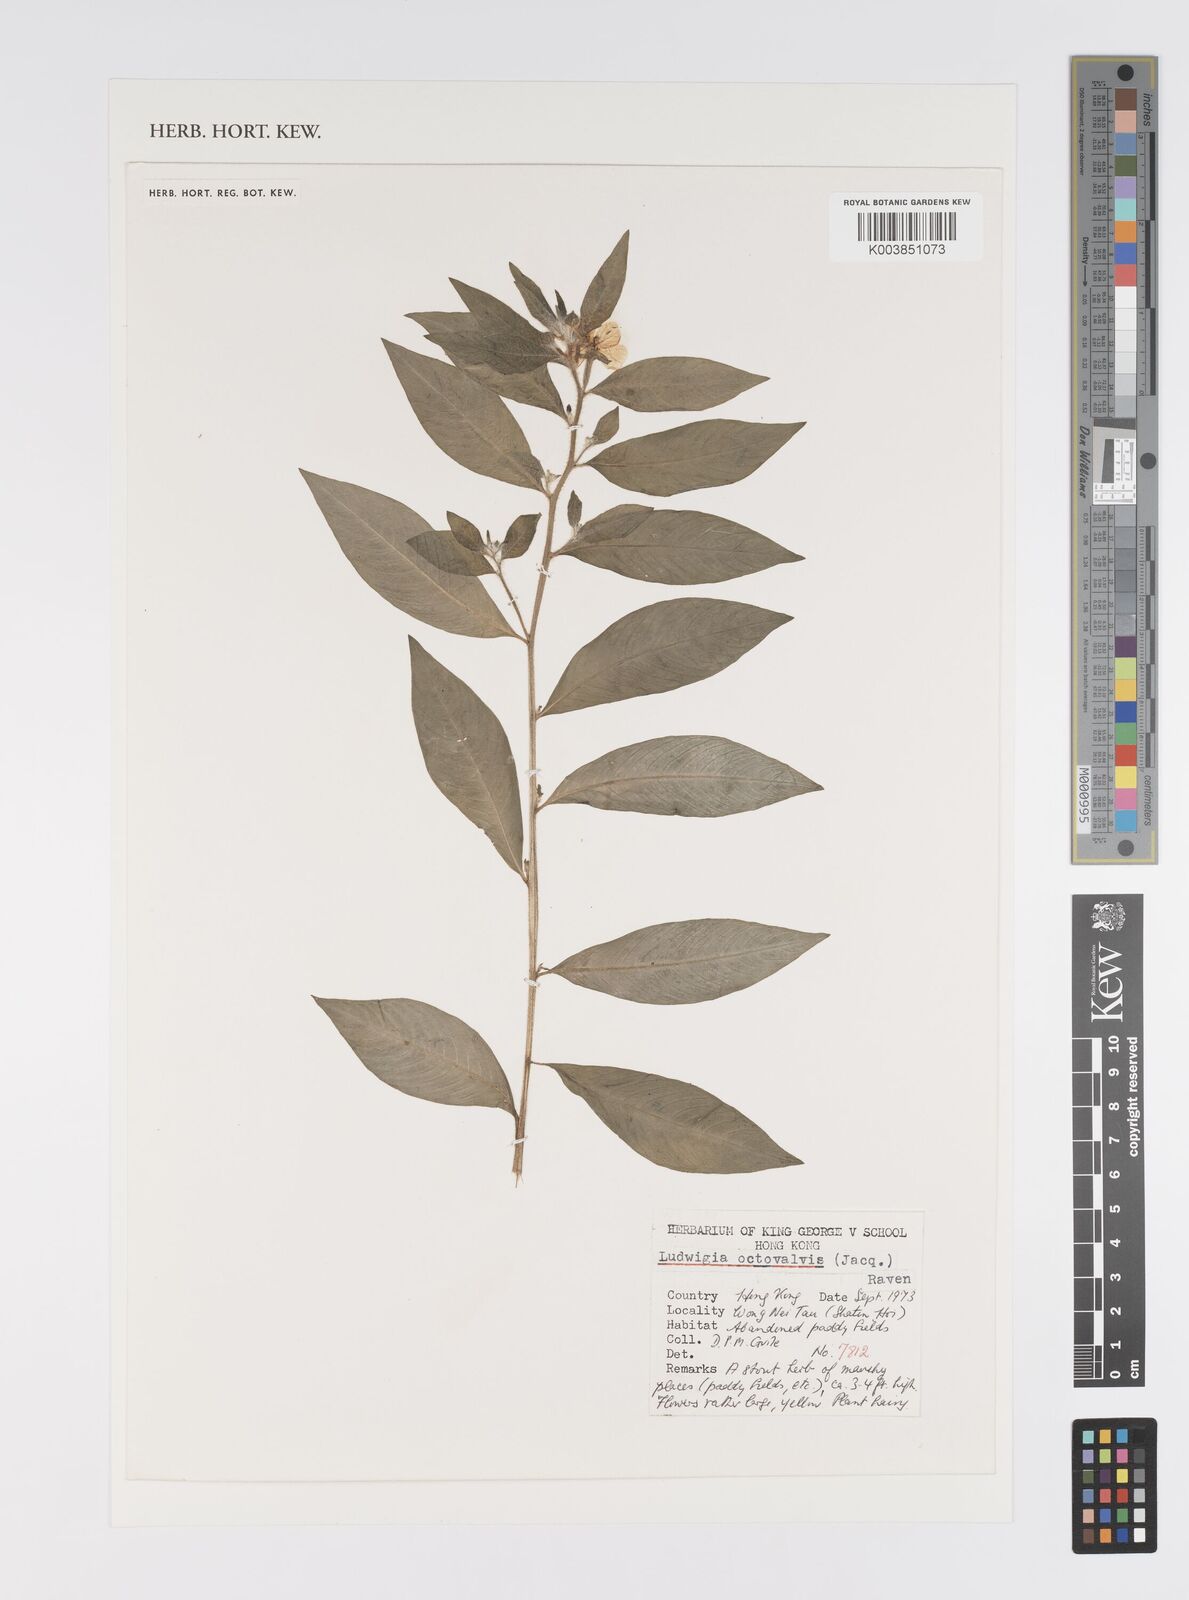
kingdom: Plantae
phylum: Tracheophyta
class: Magnoliopsida
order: Myrtales
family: Onagraceae
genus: Ludwigia
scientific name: Ludwigia octovalvis
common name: Water-primrose
